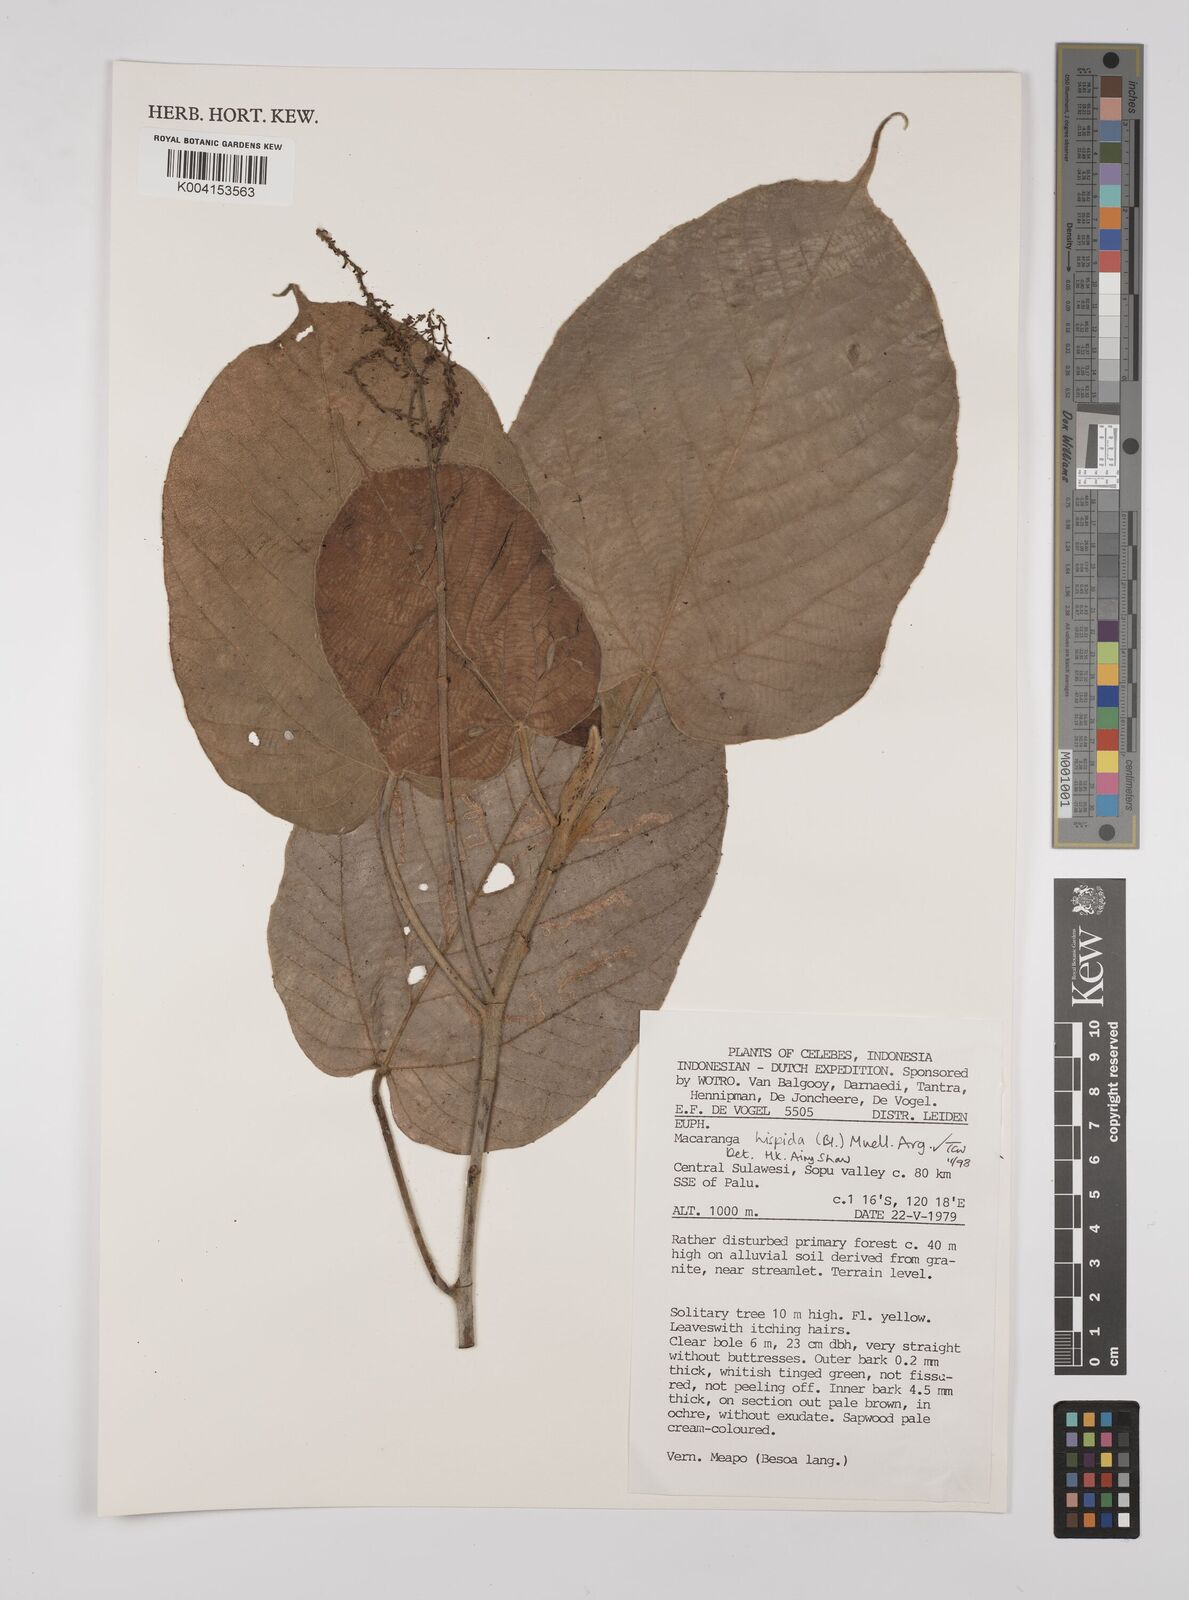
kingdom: Plantae
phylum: Tracheophyta
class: Magnoliopsida
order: Malpighiales
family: Euphorbiaceae
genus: Macaranga
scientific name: Macaranga hispida
